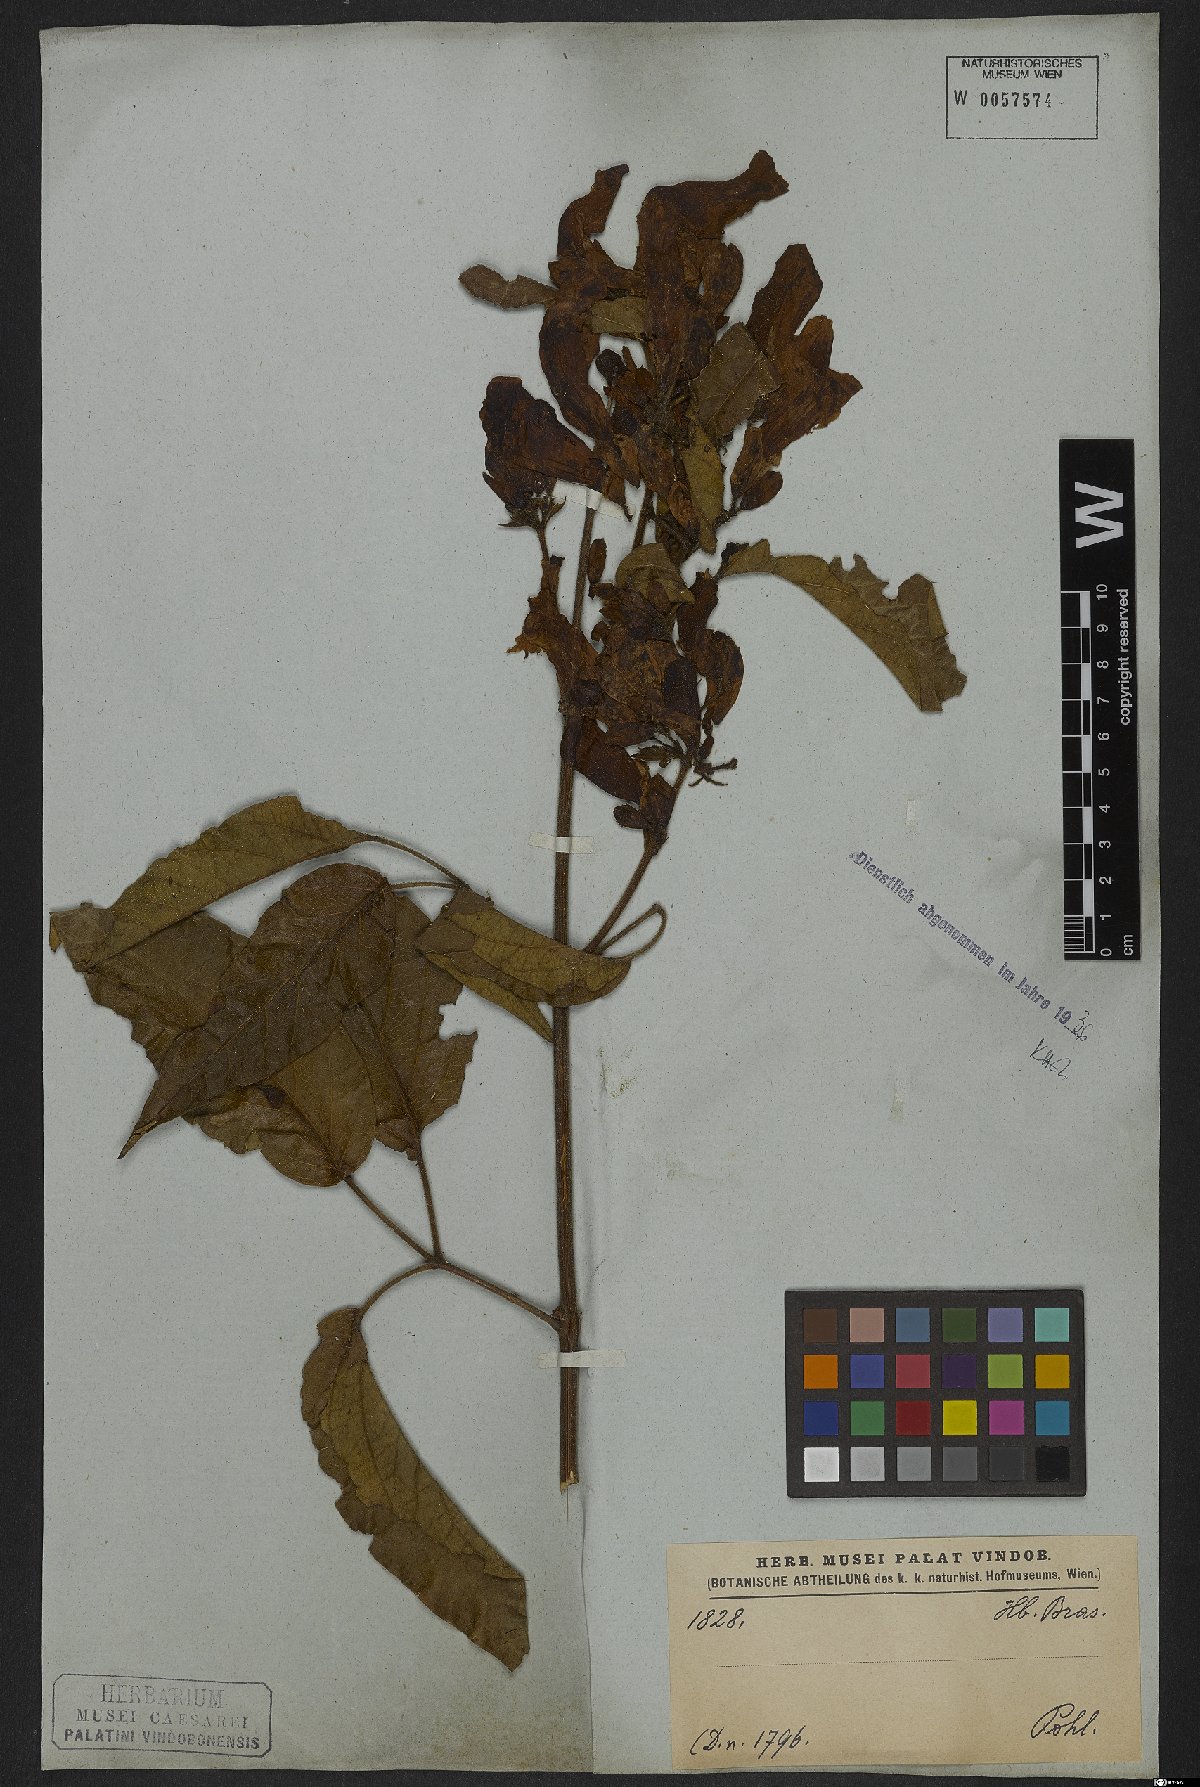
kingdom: Plantae
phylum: Tracheophyta
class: Magnoliopsida
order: Lamiales
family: Bignoniaceae
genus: Cuspidaria
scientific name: Cuspidaria sceptrum
